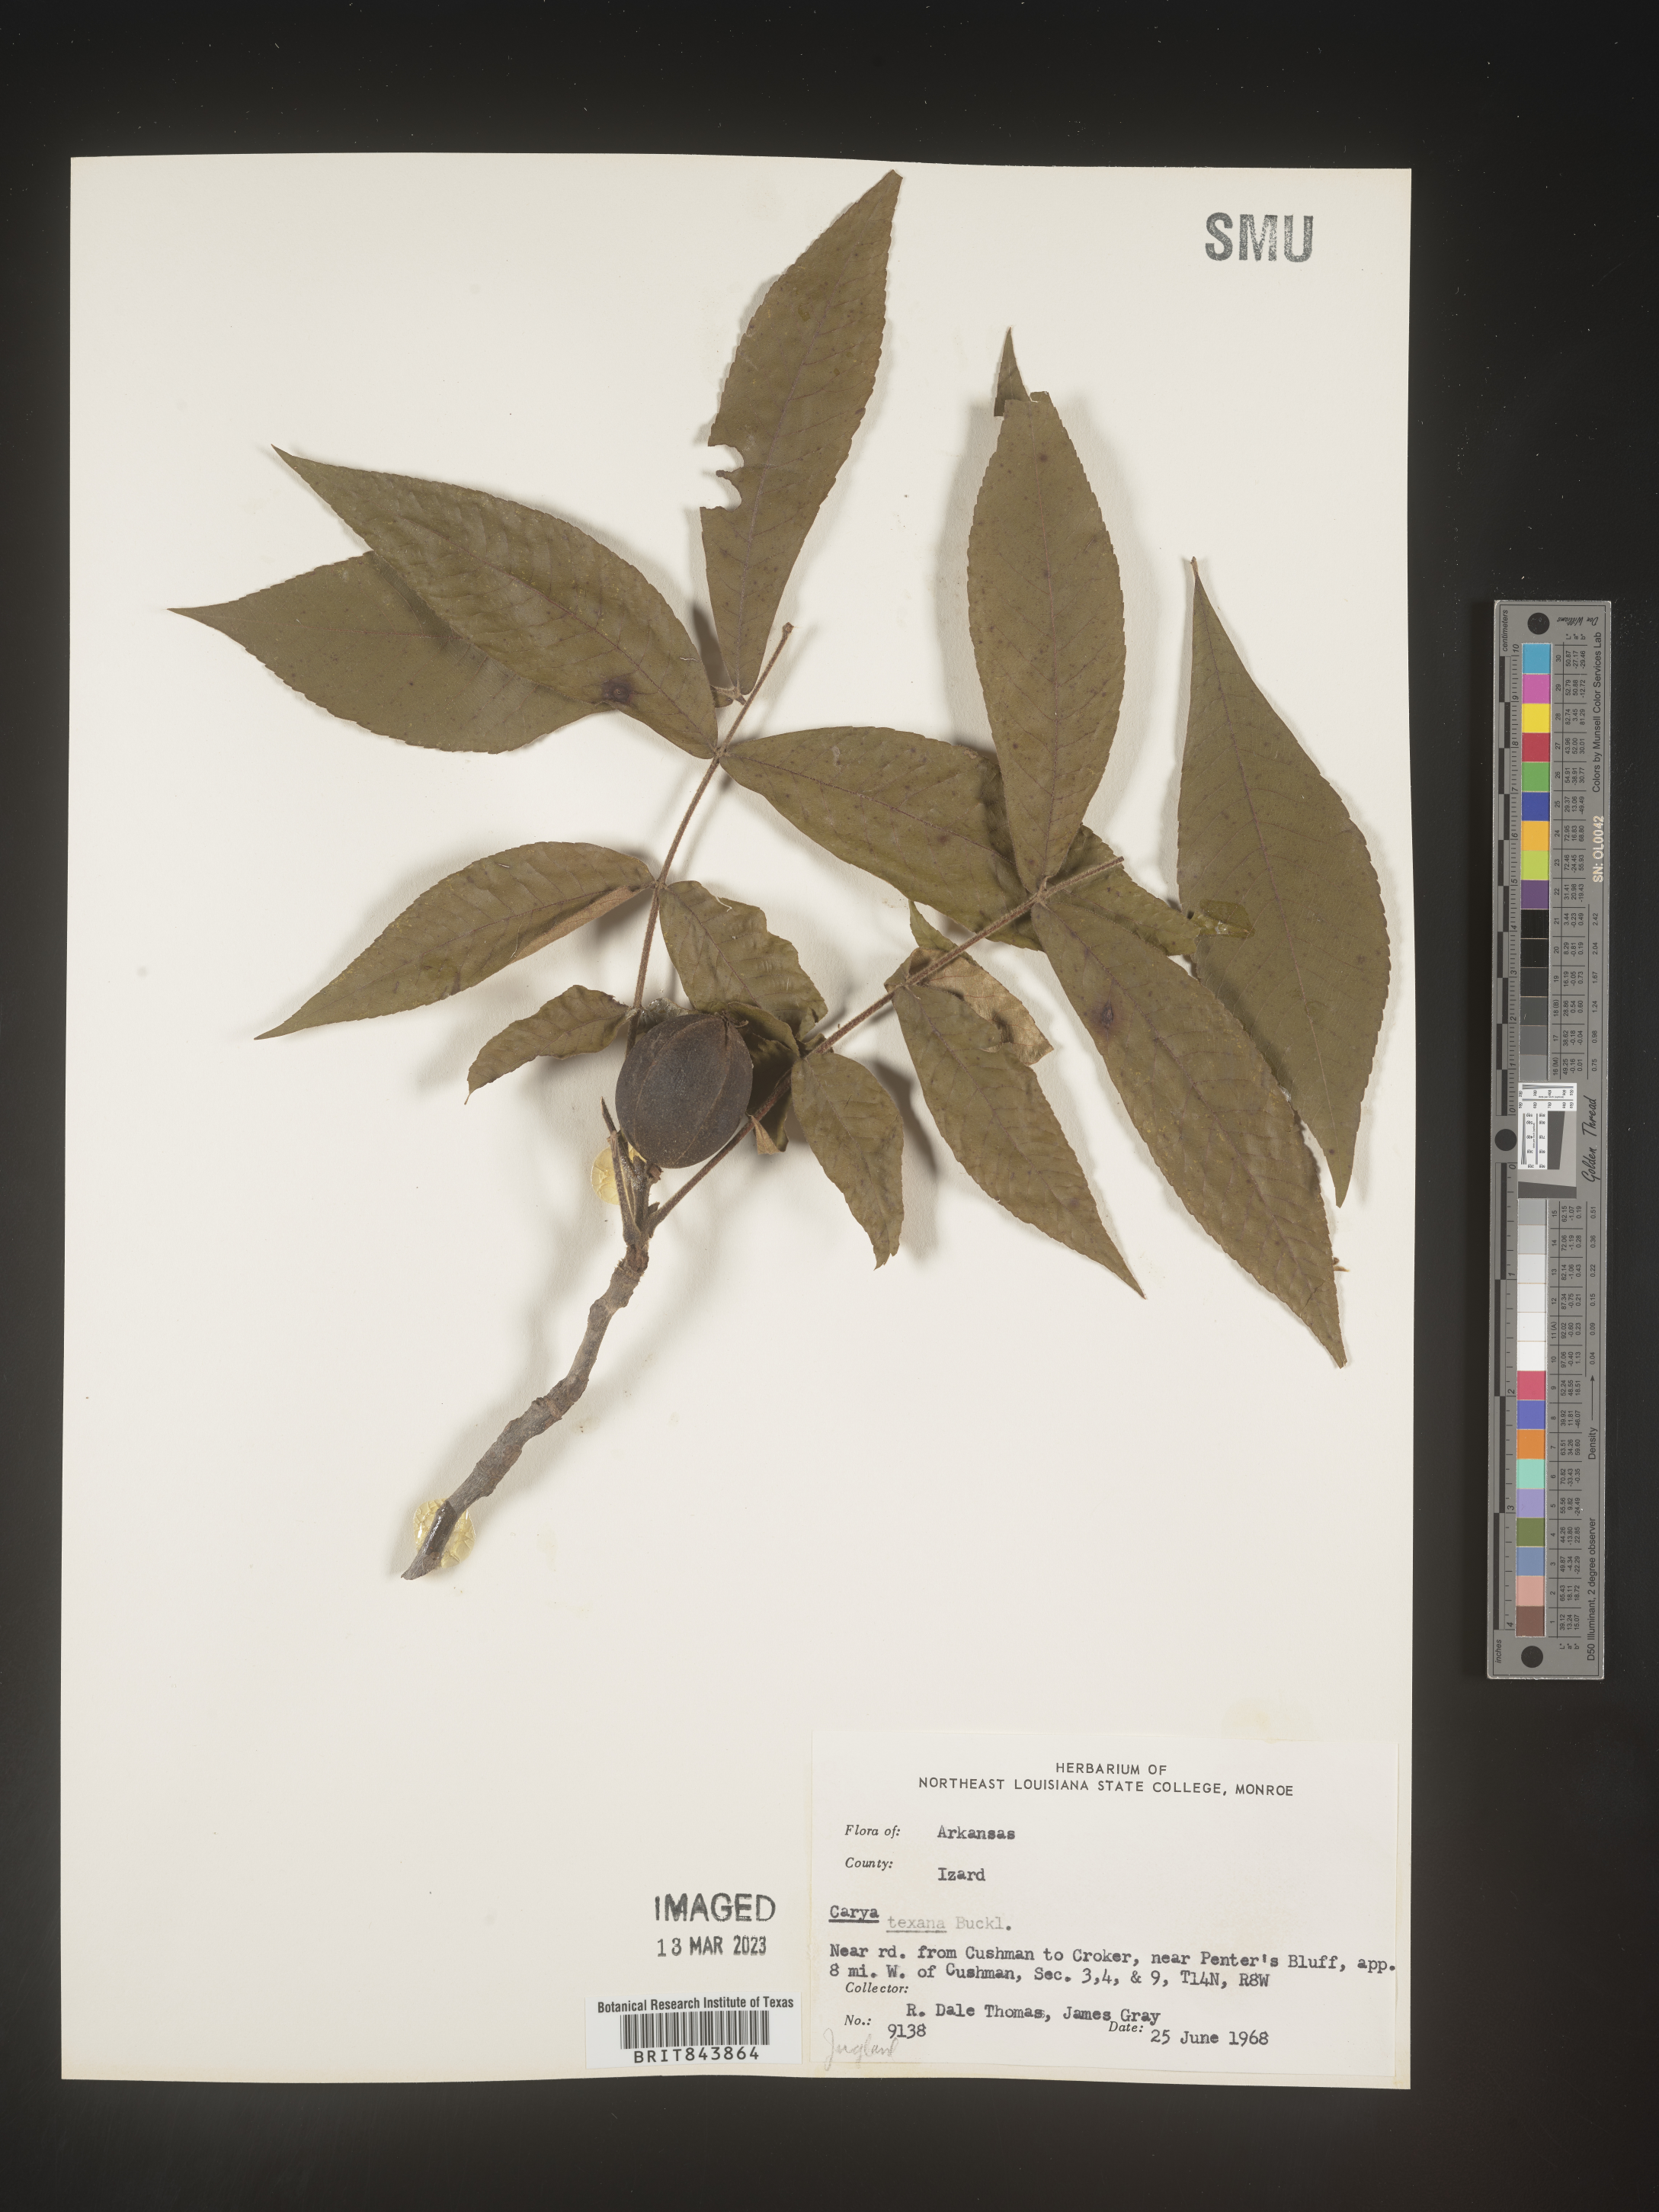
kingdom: Plantae
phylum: Tracheophyta
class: Magnoliopsida
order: Fagales
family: Juglandaceae
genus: Carya
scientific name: Carya texana
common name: Black hickory
